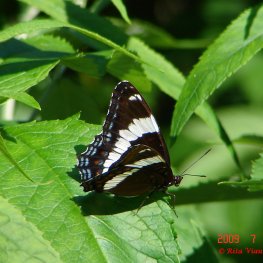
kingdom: Animalia
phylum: Arthropoda
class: Insecta
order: Lepidoptera
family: Nymphalidae
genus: Limenitis
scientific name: Limenitis arthemis
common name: Red-spotted Admiral
